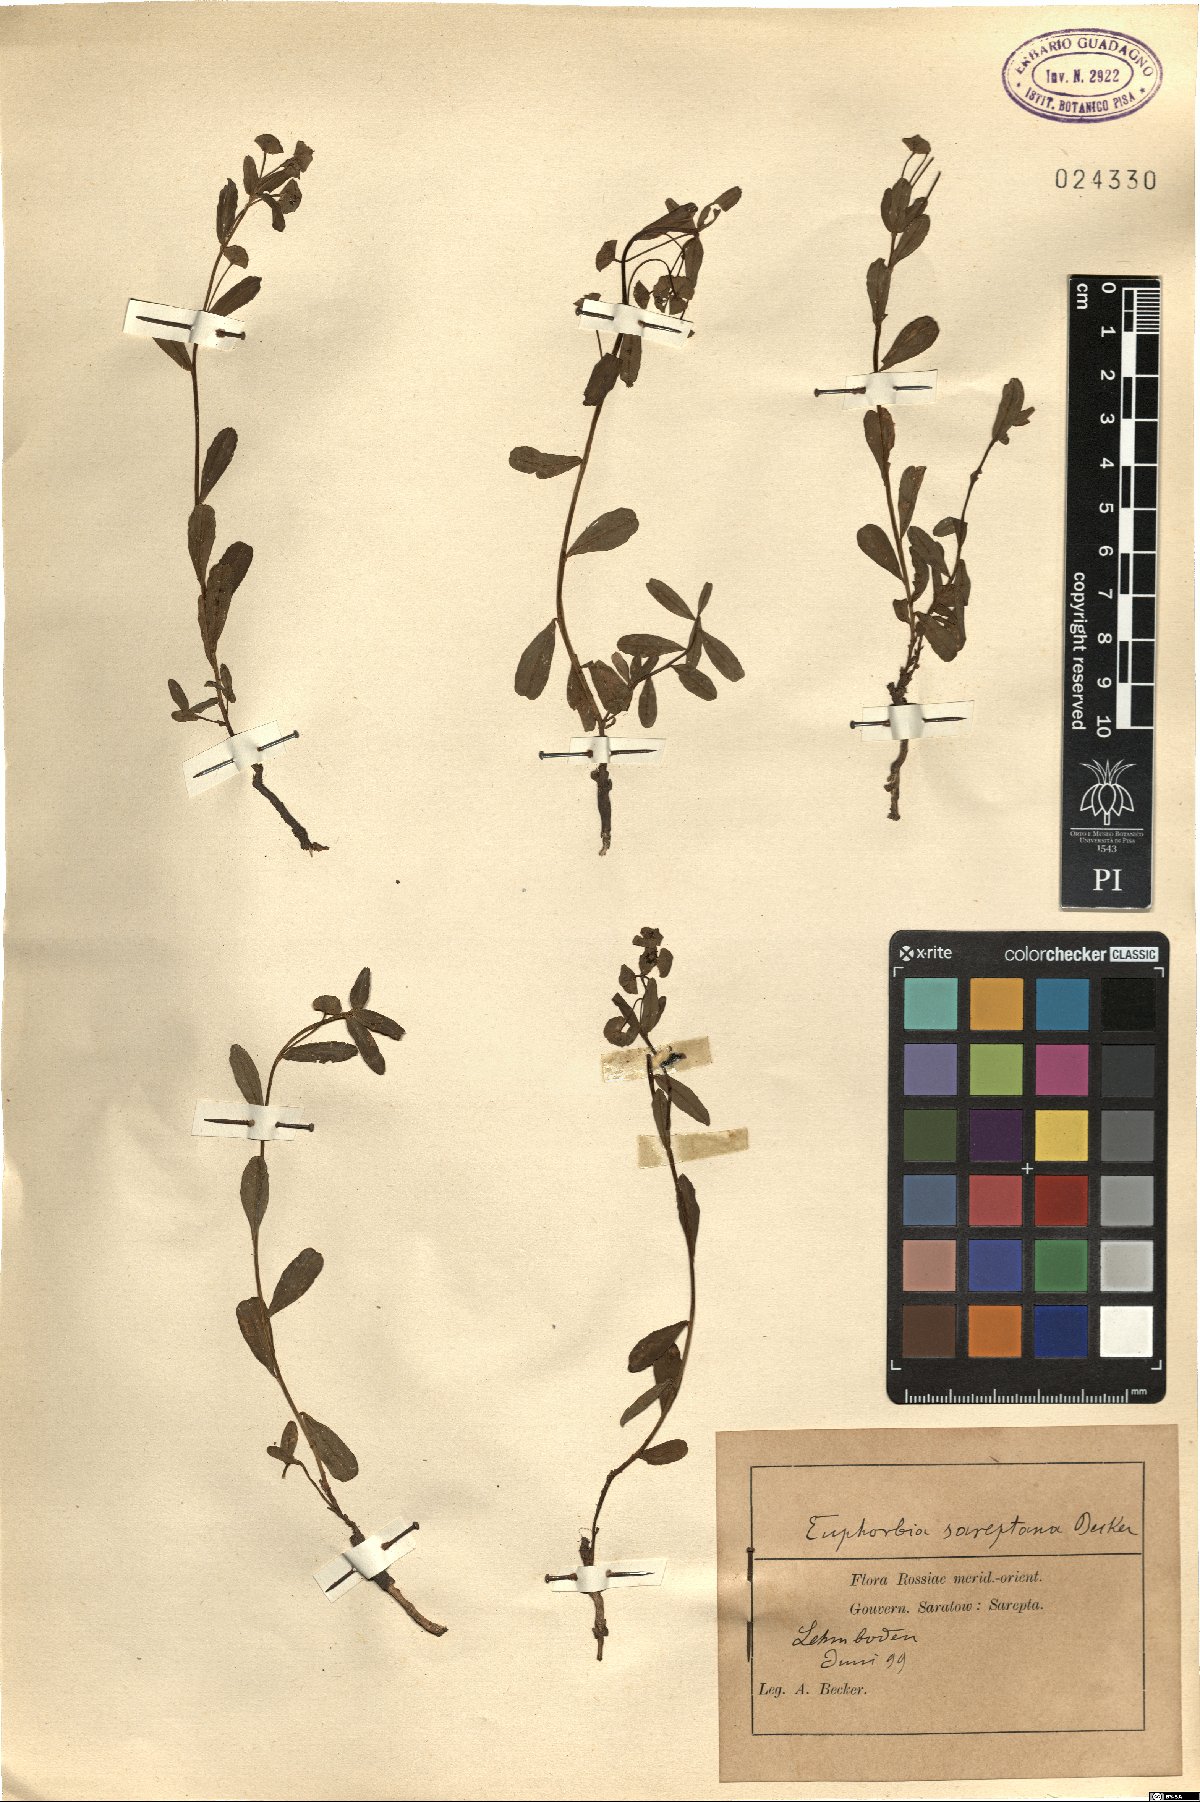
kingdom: Plantae
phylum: Tracheophyta
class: Magnoliopsida
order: Malpighiales
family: Euphorbiaceae
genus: Euphorbia
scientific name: Euphorbia sareptana
